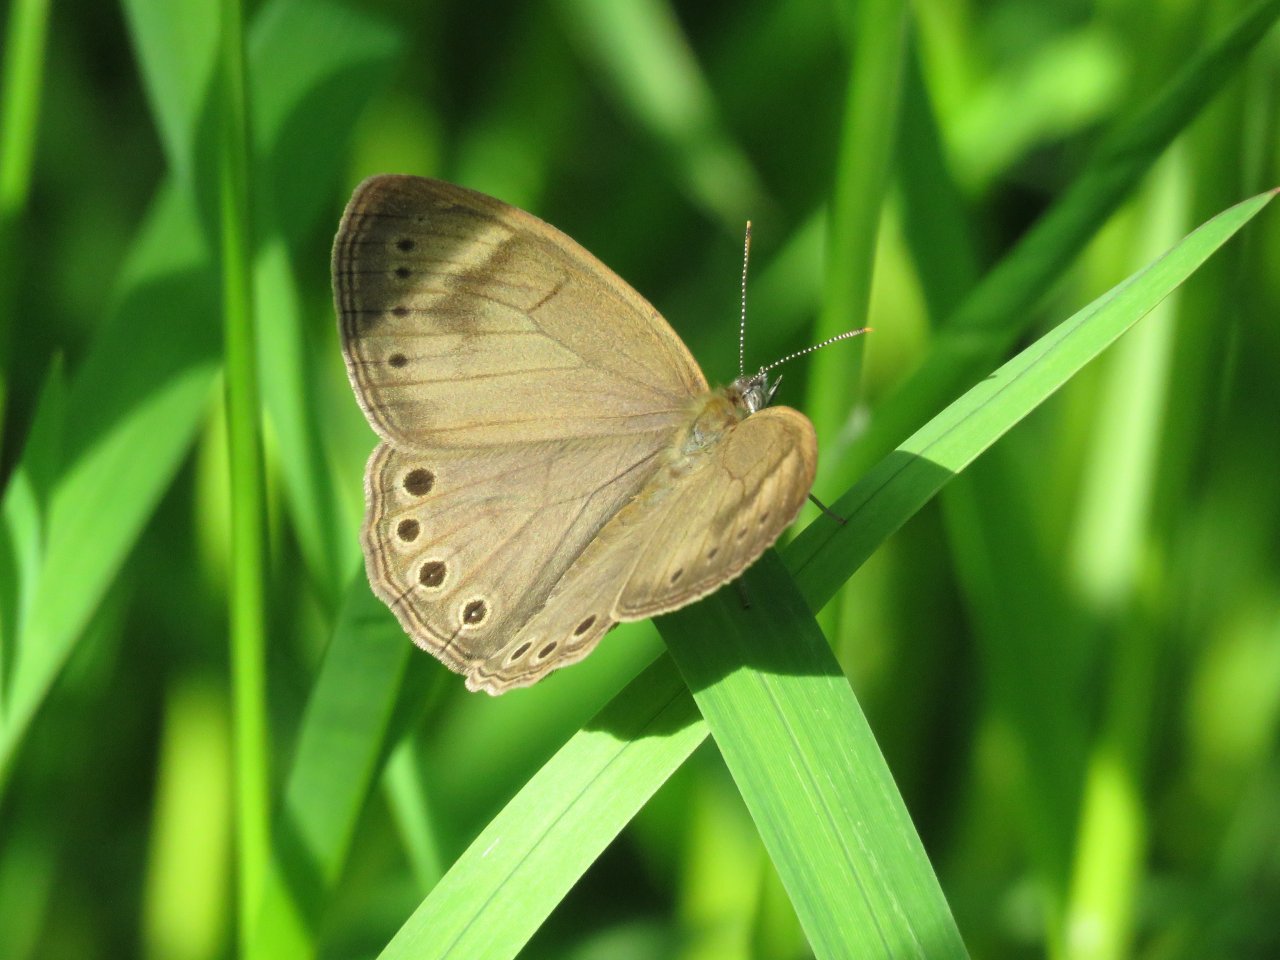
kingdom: Animalia
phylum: Arthropoda
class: Insecta
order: Lepidoptera
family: Nymphalidae
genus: Lethe
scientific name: Lethe eurydice
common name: Appalachian Eyed Brown
